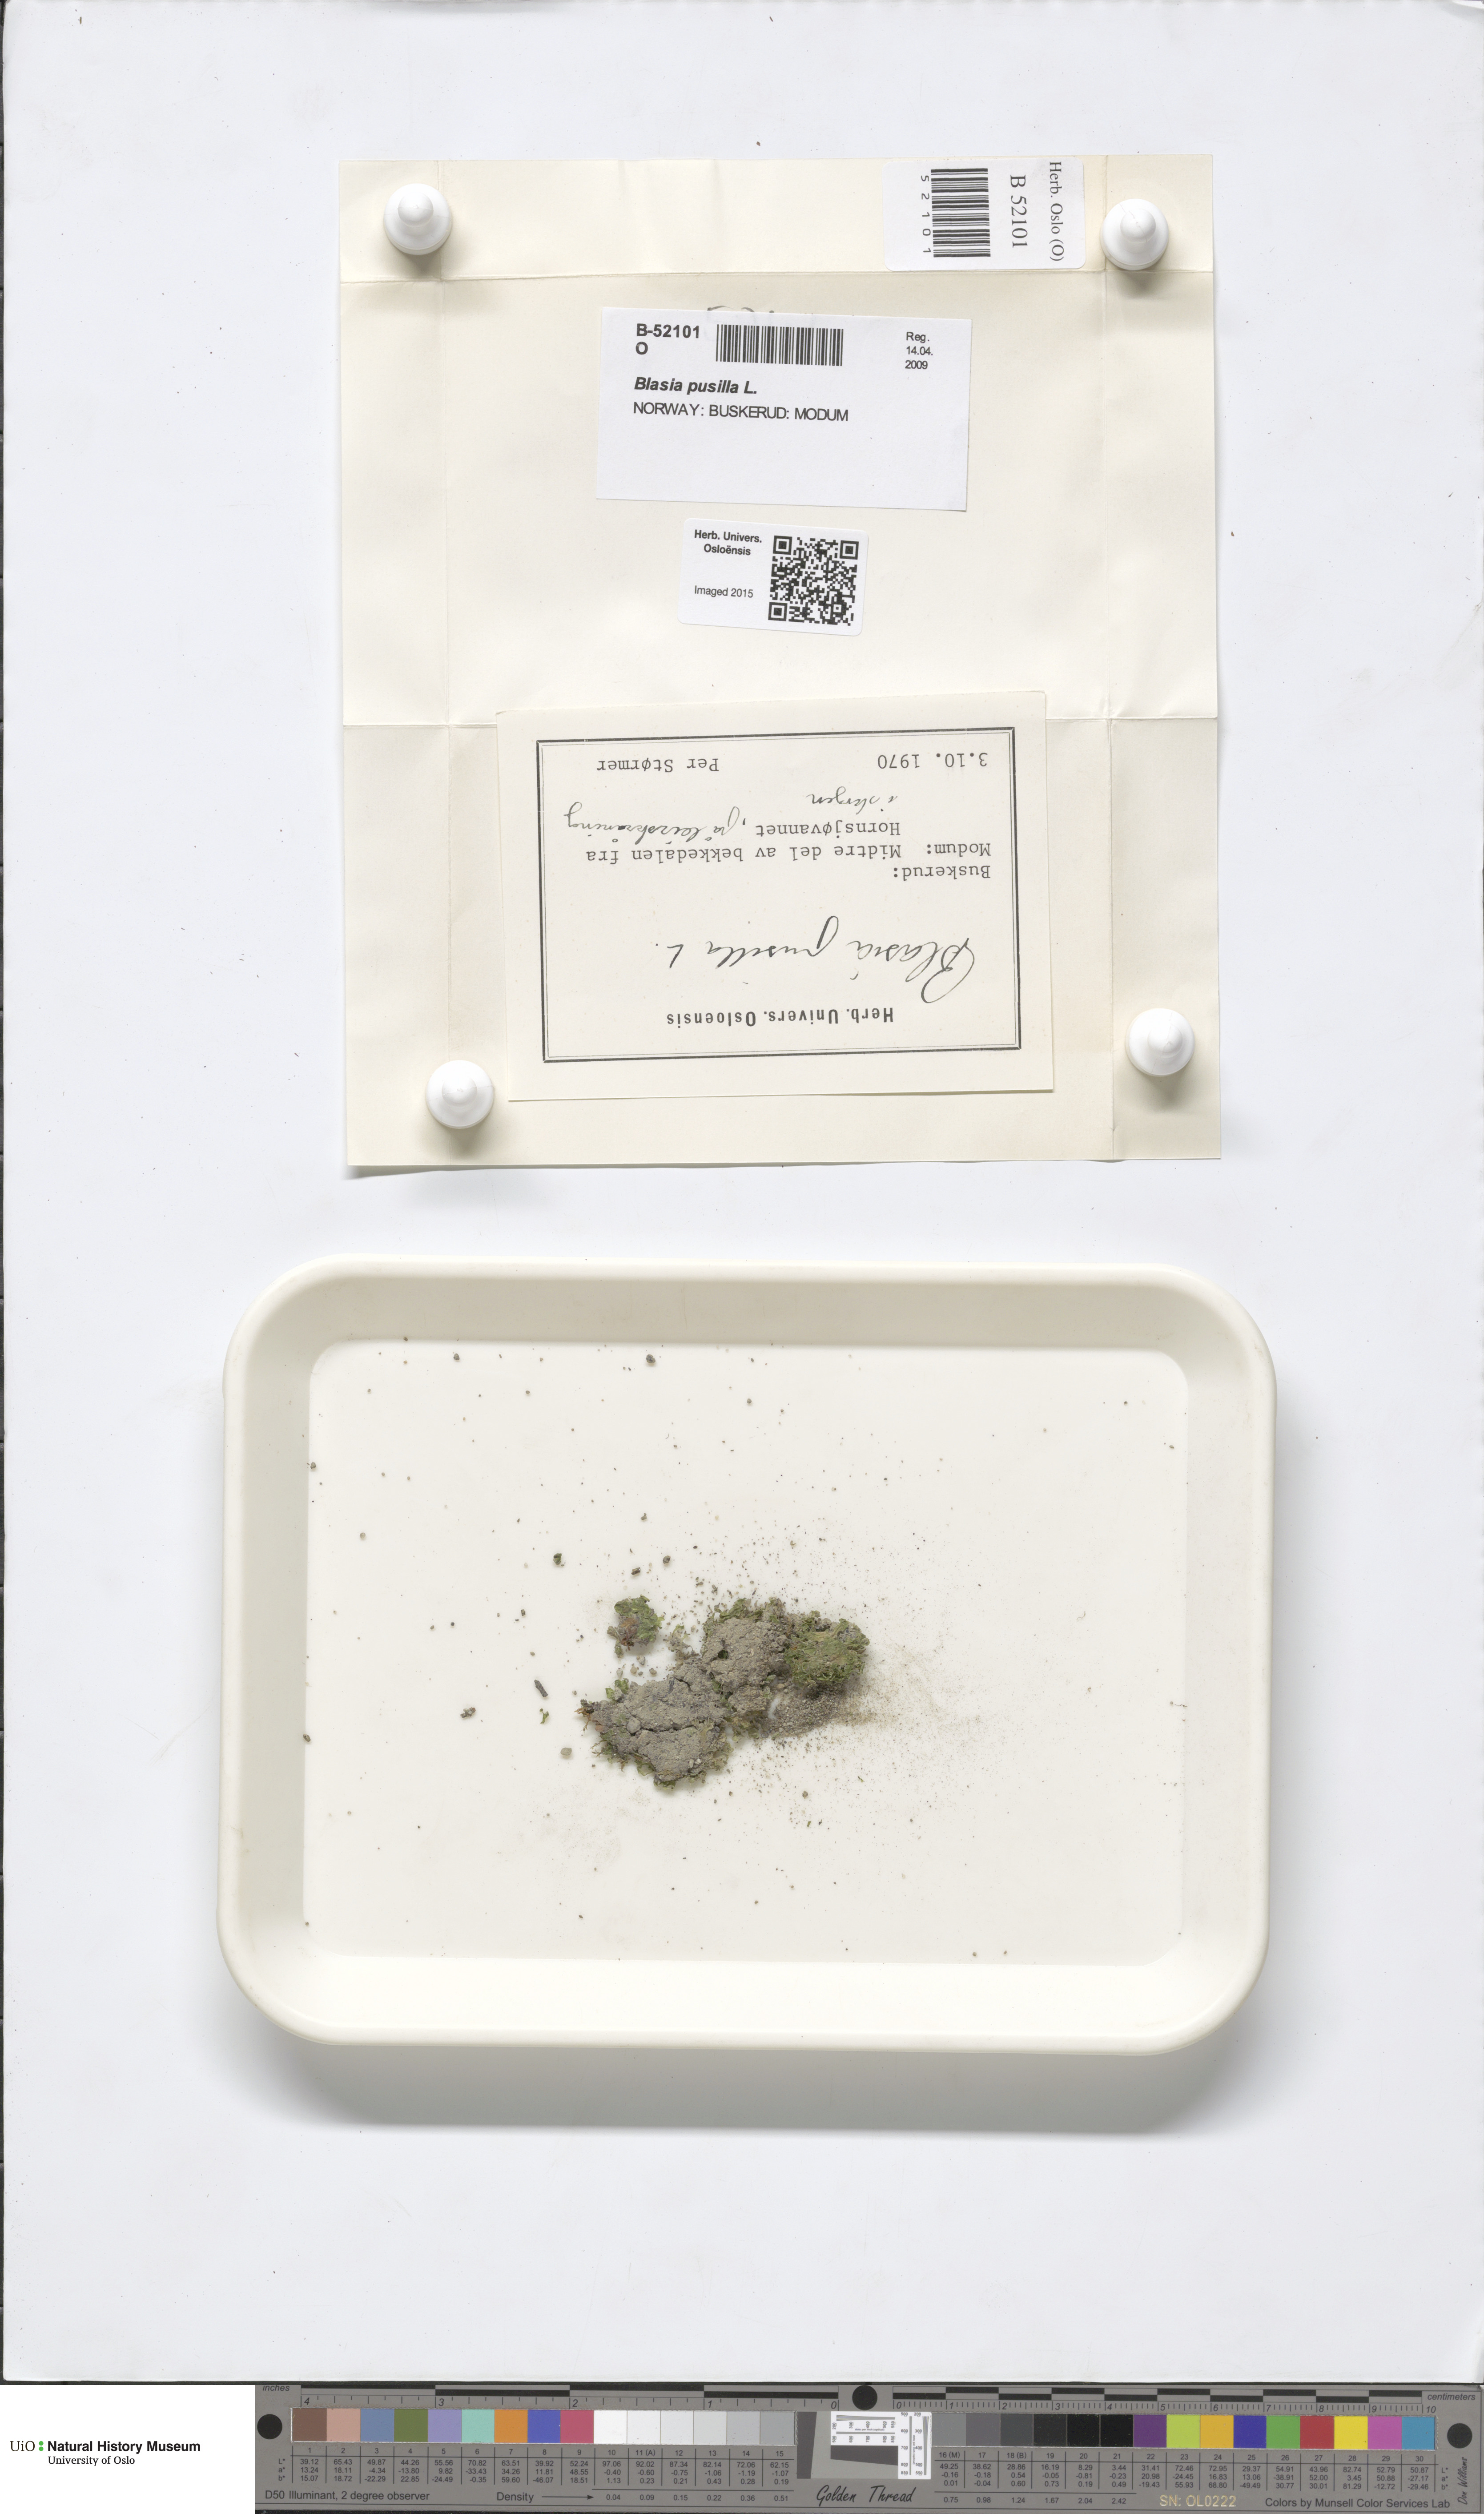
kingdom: Plantae
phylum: Marchantiophyta
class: Marchantiopsida
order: Blasiales
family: Blasiaceae
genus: Blasia
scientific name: Blasia pusilla
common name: Common kettlewort
